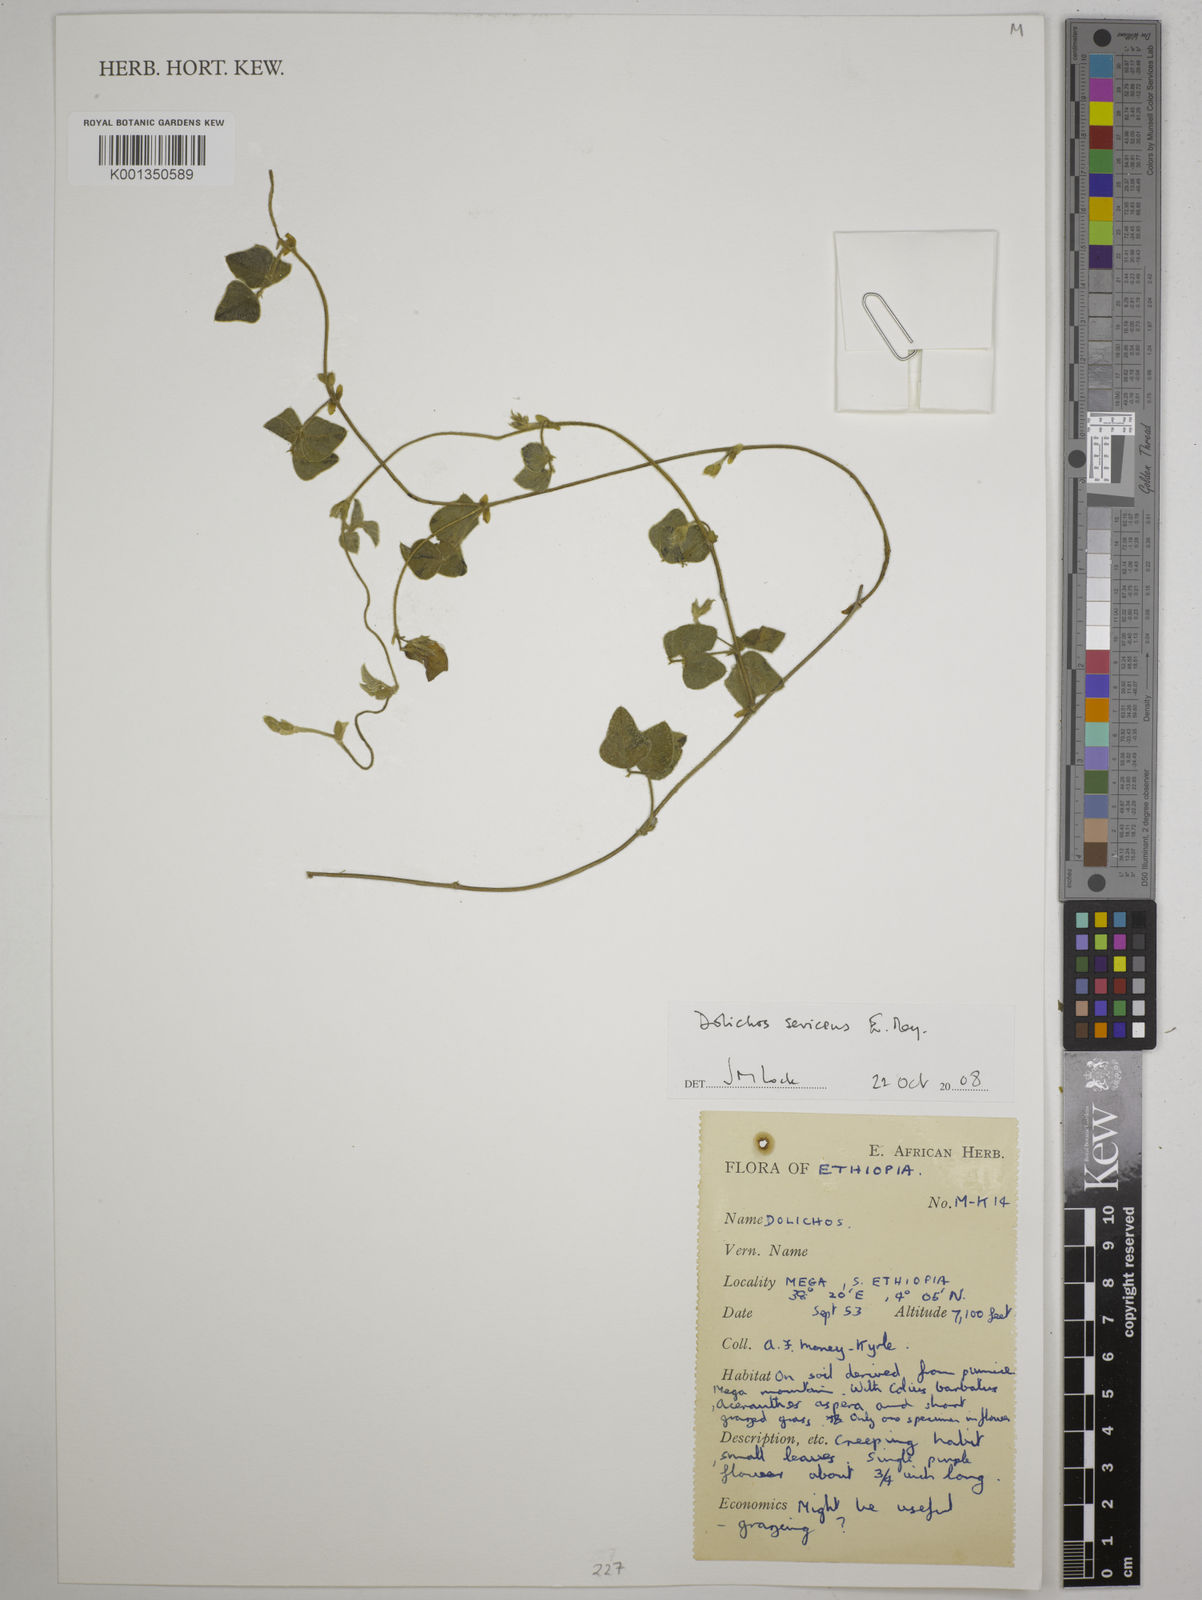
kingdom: Plantae
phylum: Tracheophyta
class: Magnoliopsida
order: Fabales
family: Fabaceae
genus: Dolichos
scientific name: Dolichos sericeus
